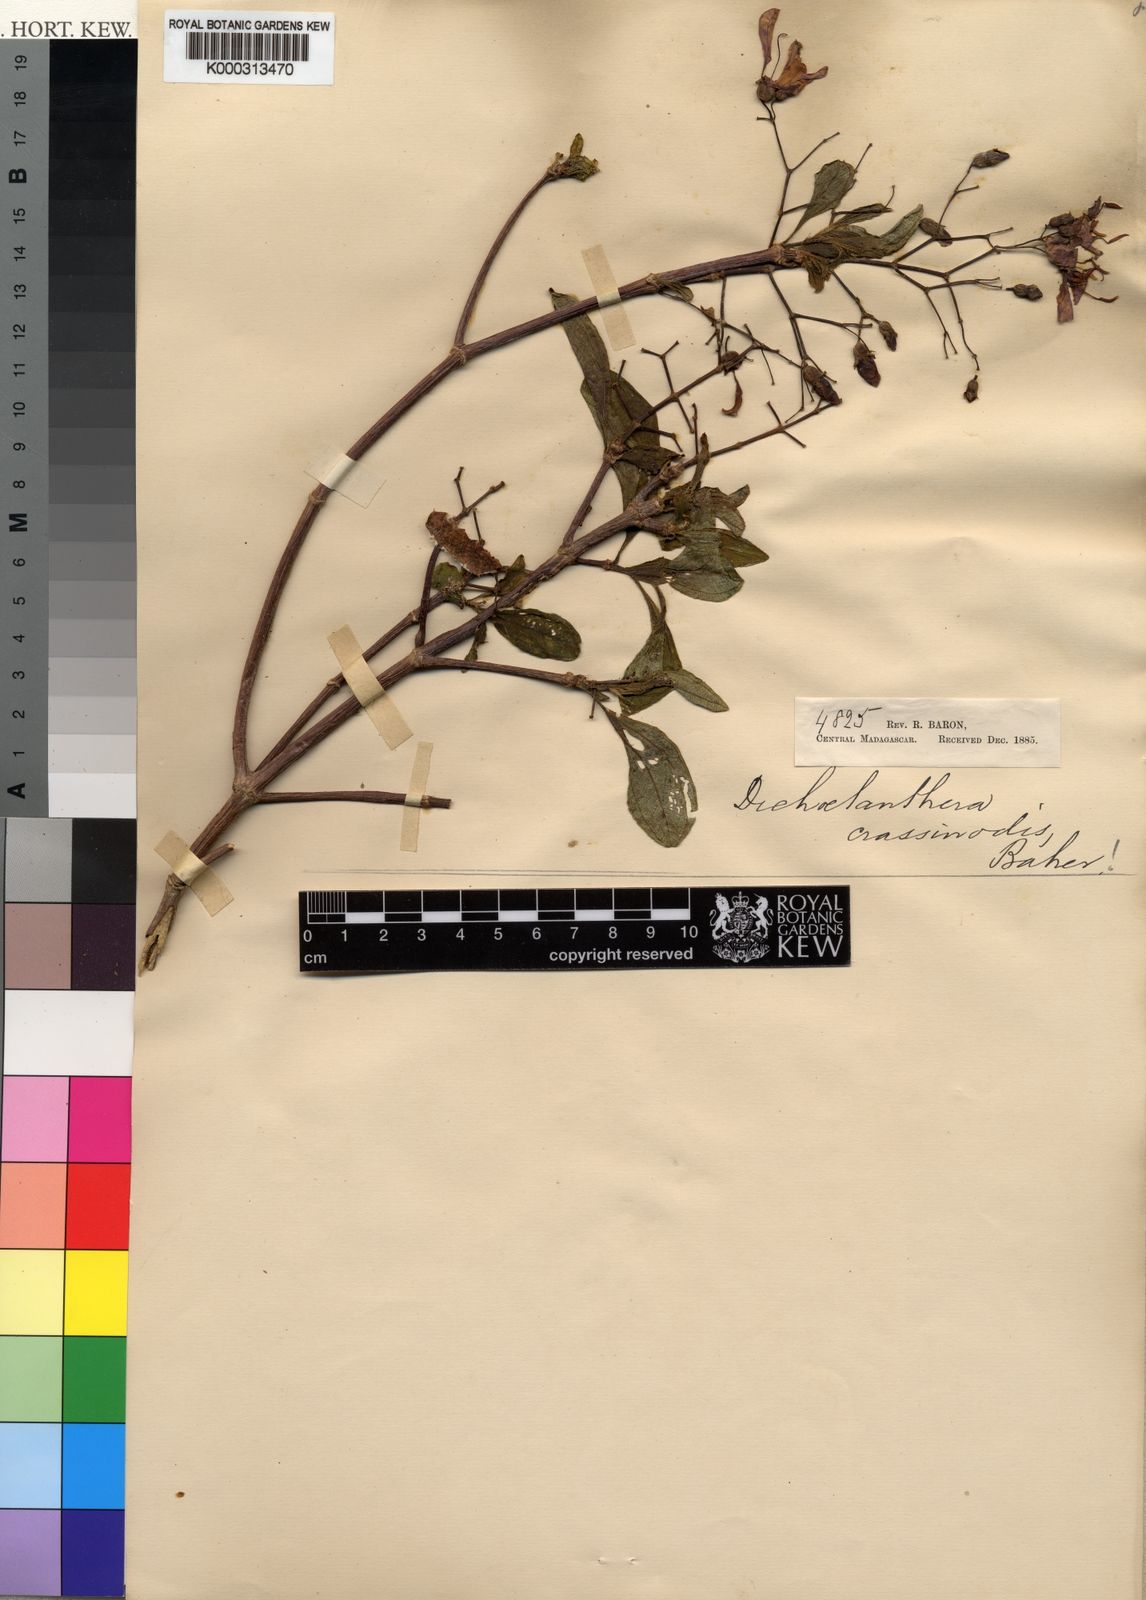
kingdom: Plantae
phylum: Tracheophyta
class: Magnoliopsida
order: Myrtales
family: Melastomataceae
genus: Dichaetanthera
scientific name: Dichaetanthera crassinodis
